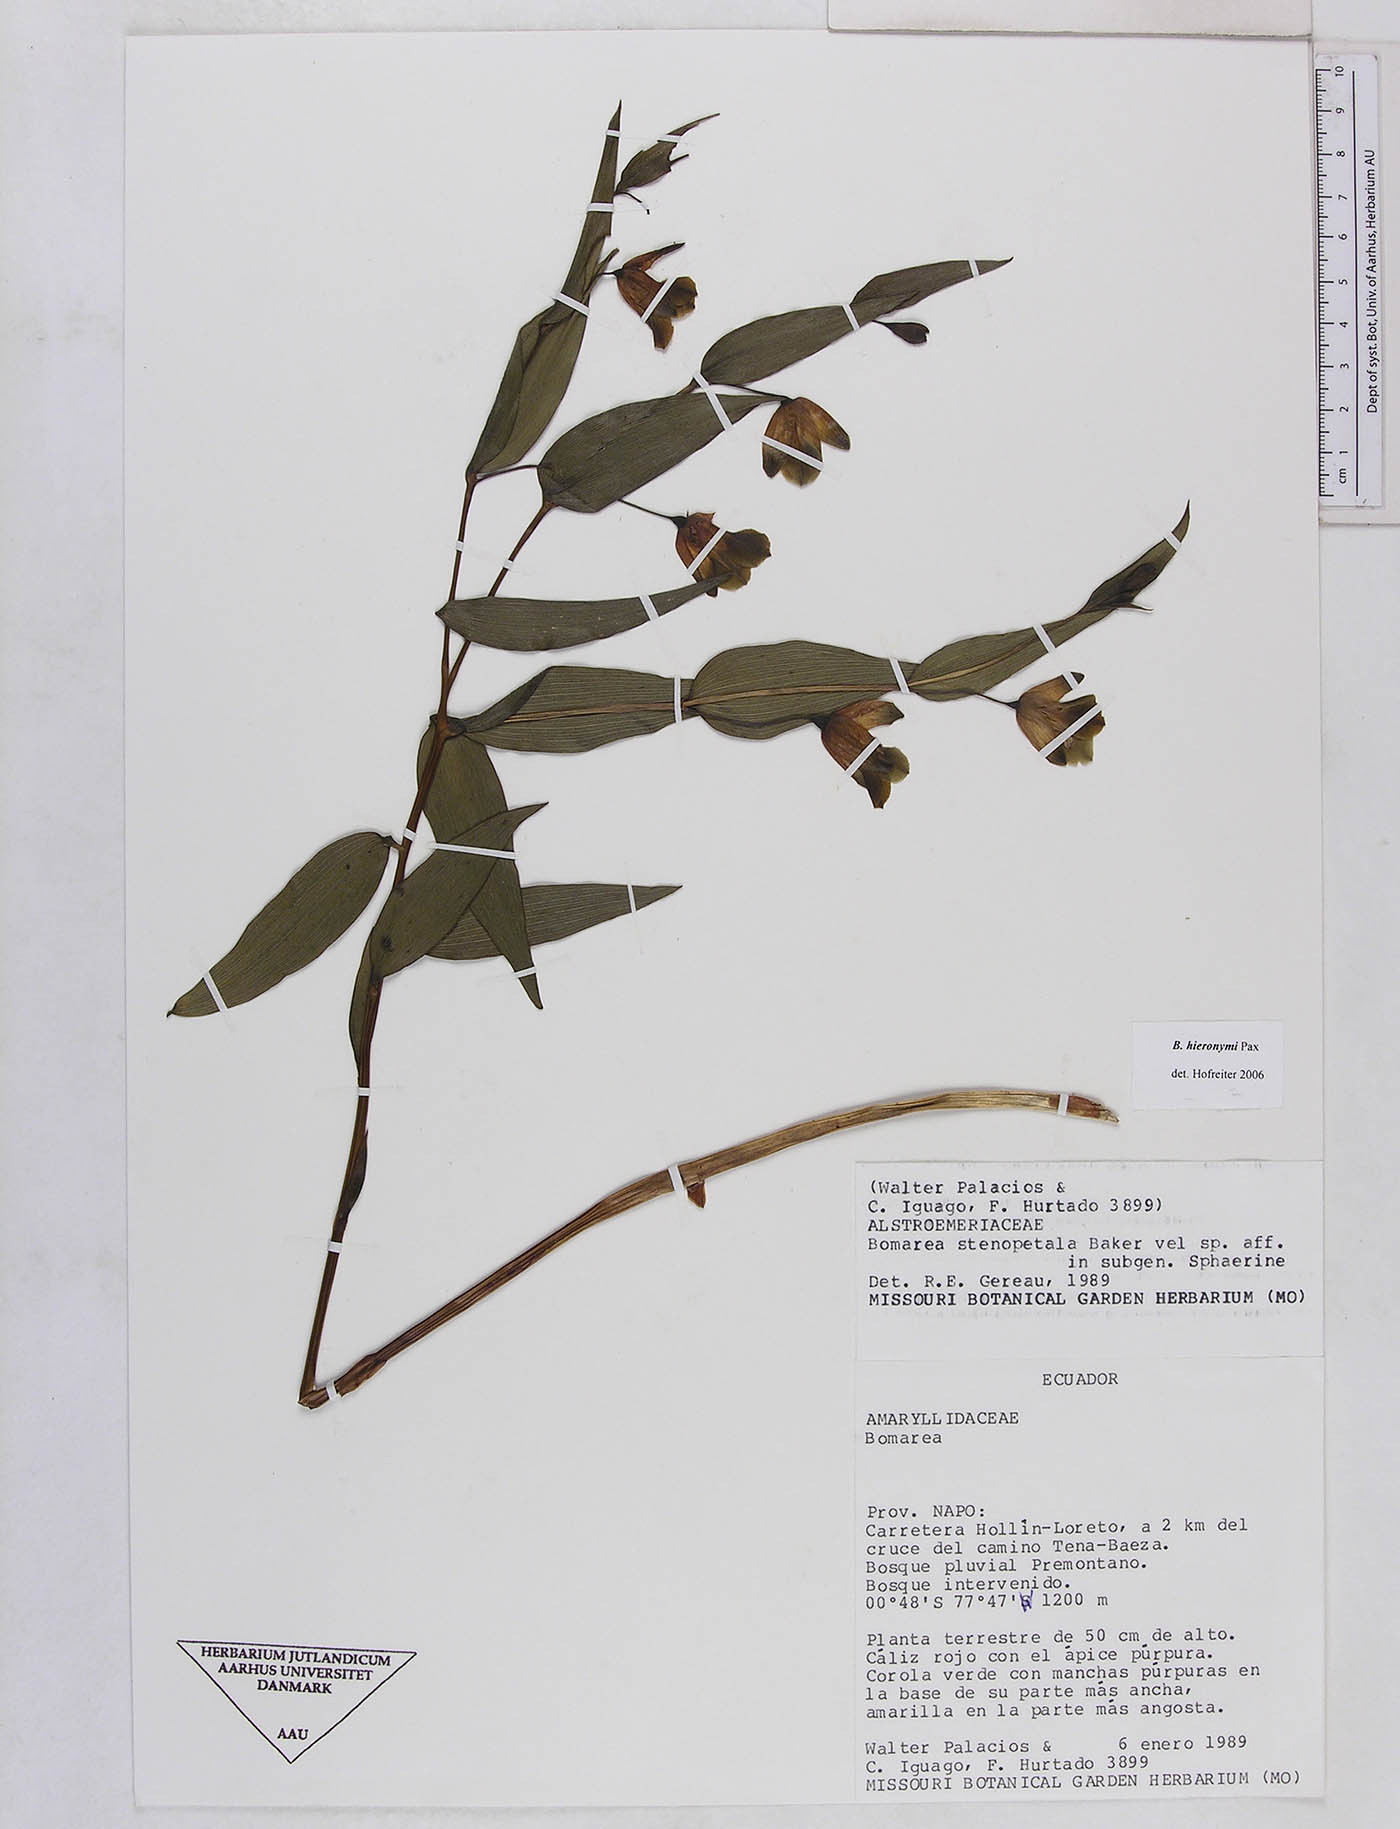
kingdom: Plantae
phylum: Tracheophyta
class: Liliopsida
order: Liliales
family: Alstroemeriaceae
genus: Bomarea
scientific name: Bomarea hieronymi
